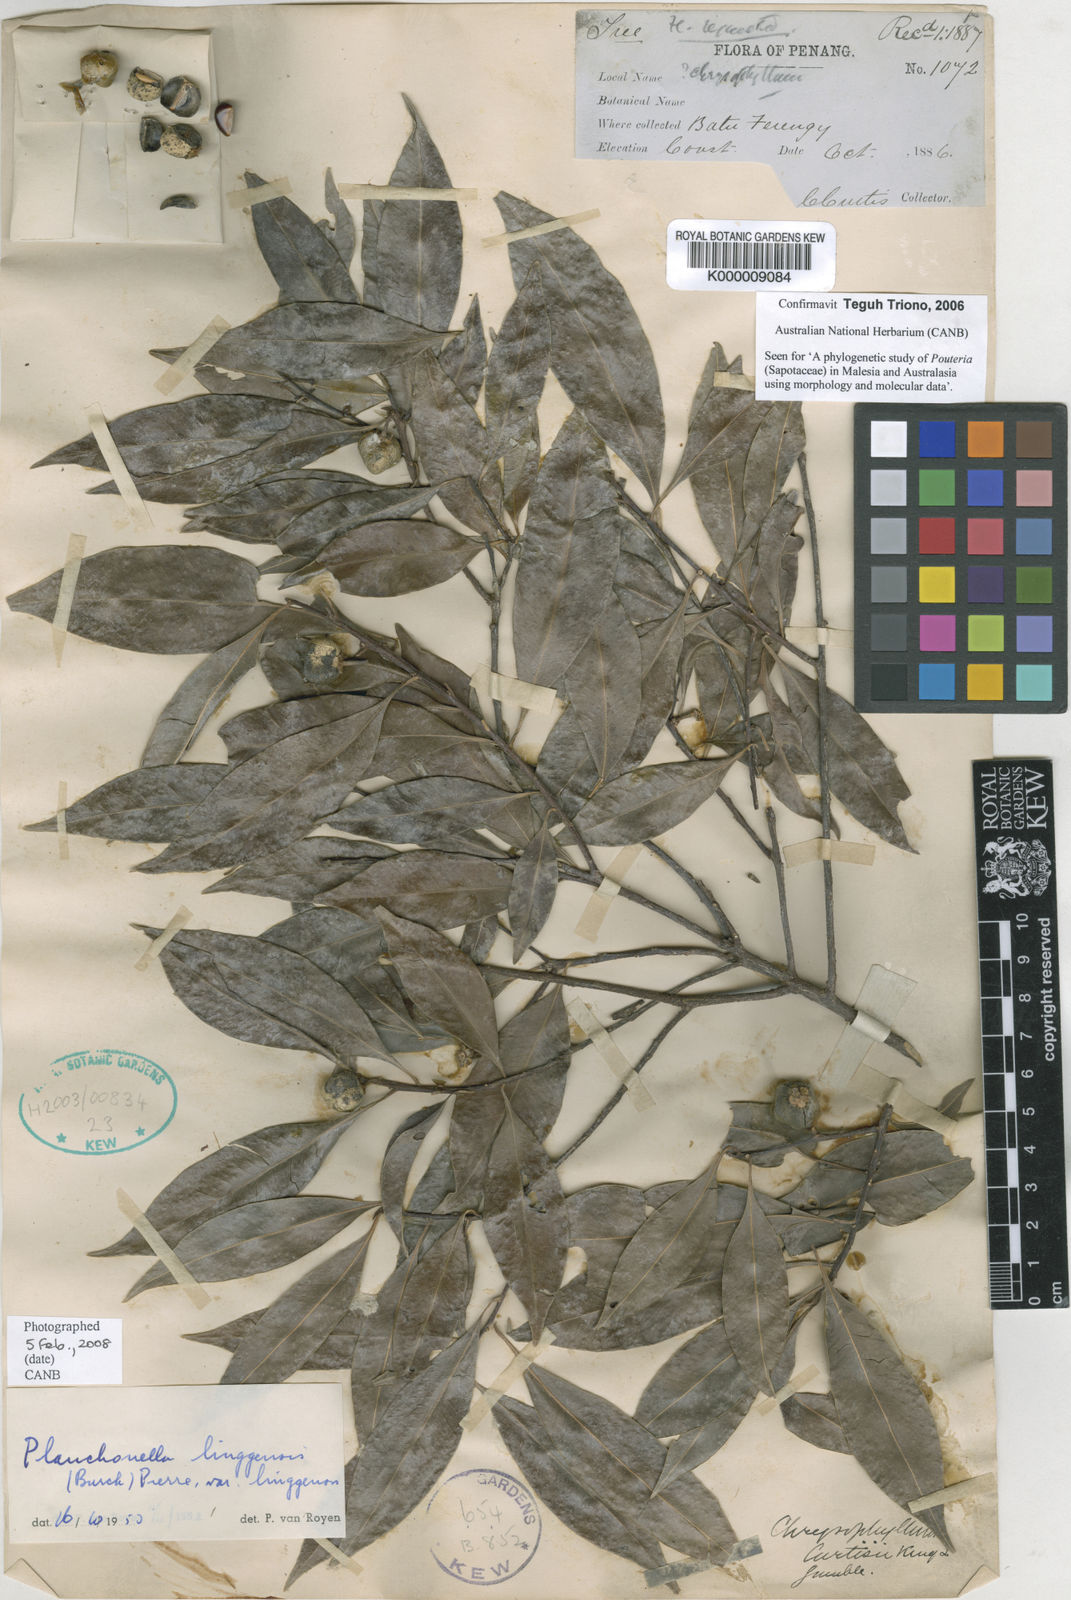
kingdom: Plantae
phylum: Tracheophyta
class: Magnoliopsida
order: Ericales
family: Sapotaceae
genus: Planchonella
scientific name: Planchonella chartacea
